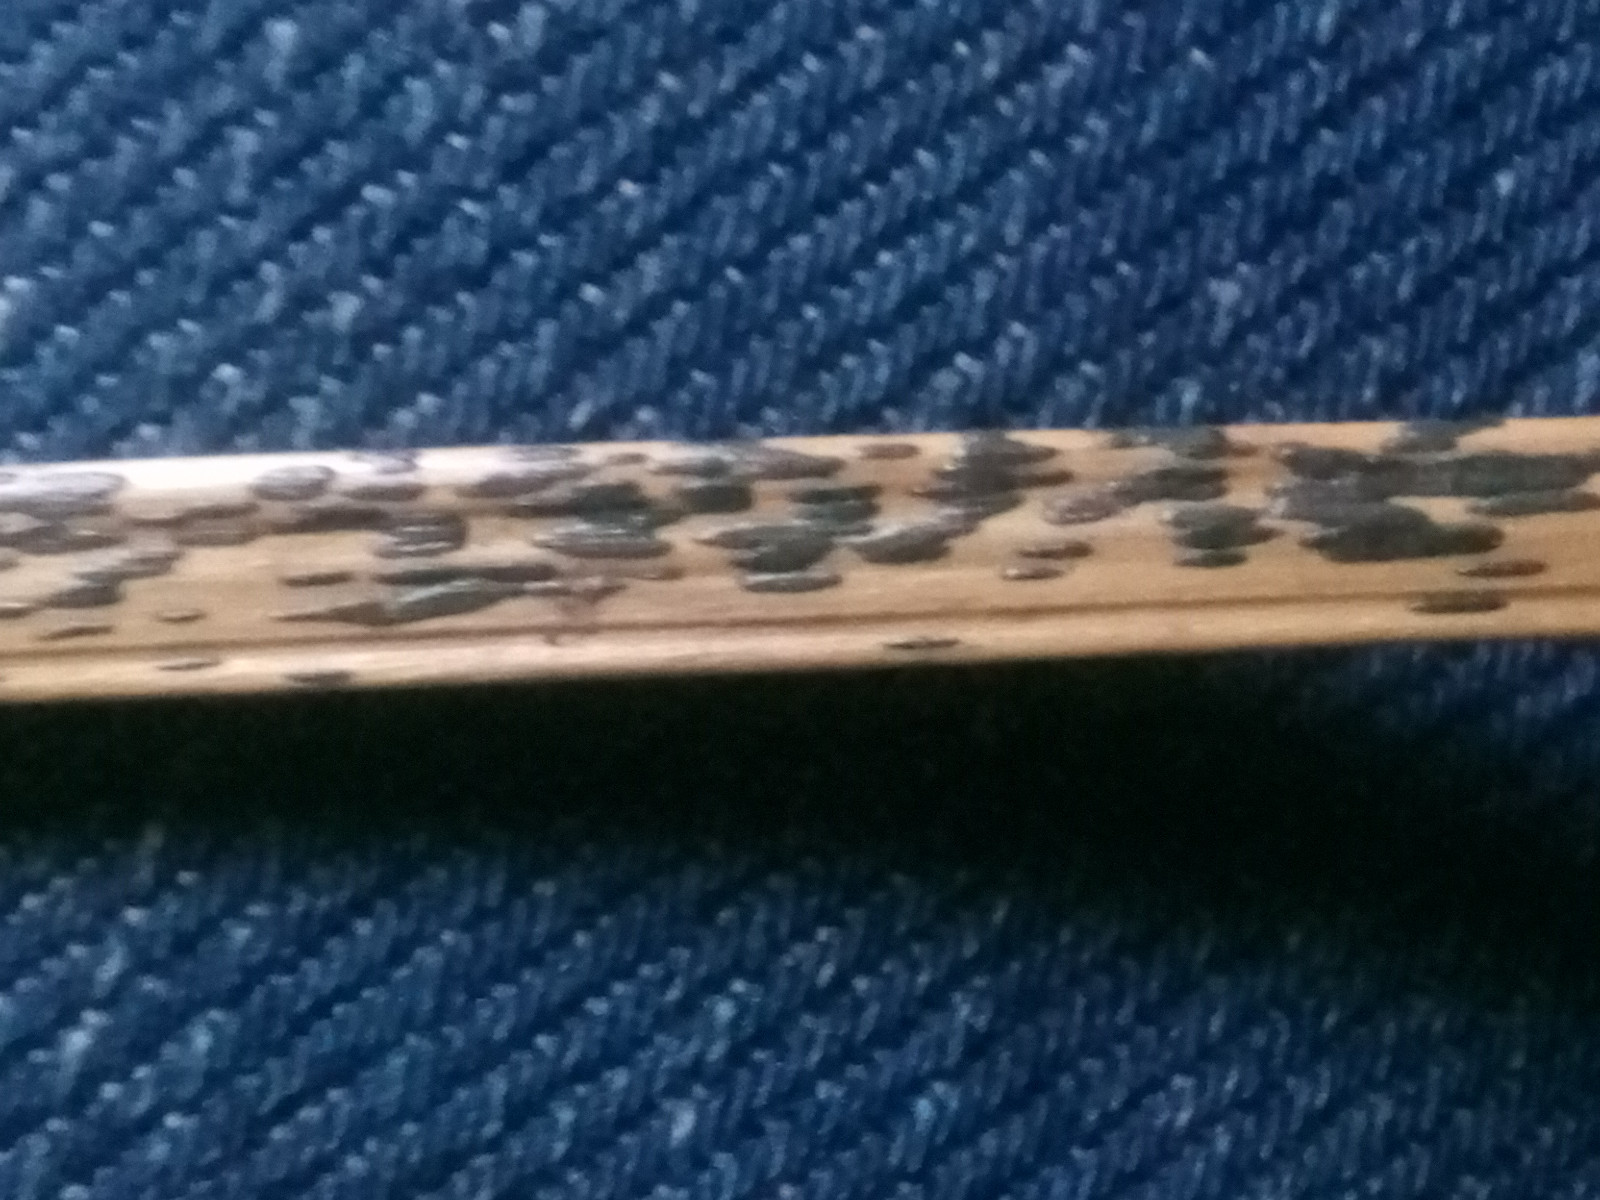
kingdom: Fungi
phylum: Ascomycota
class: Dothideomycetes
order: Pleosporales
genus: Rhopographus
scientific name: Rhopographus filicinus
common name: Bracken map
